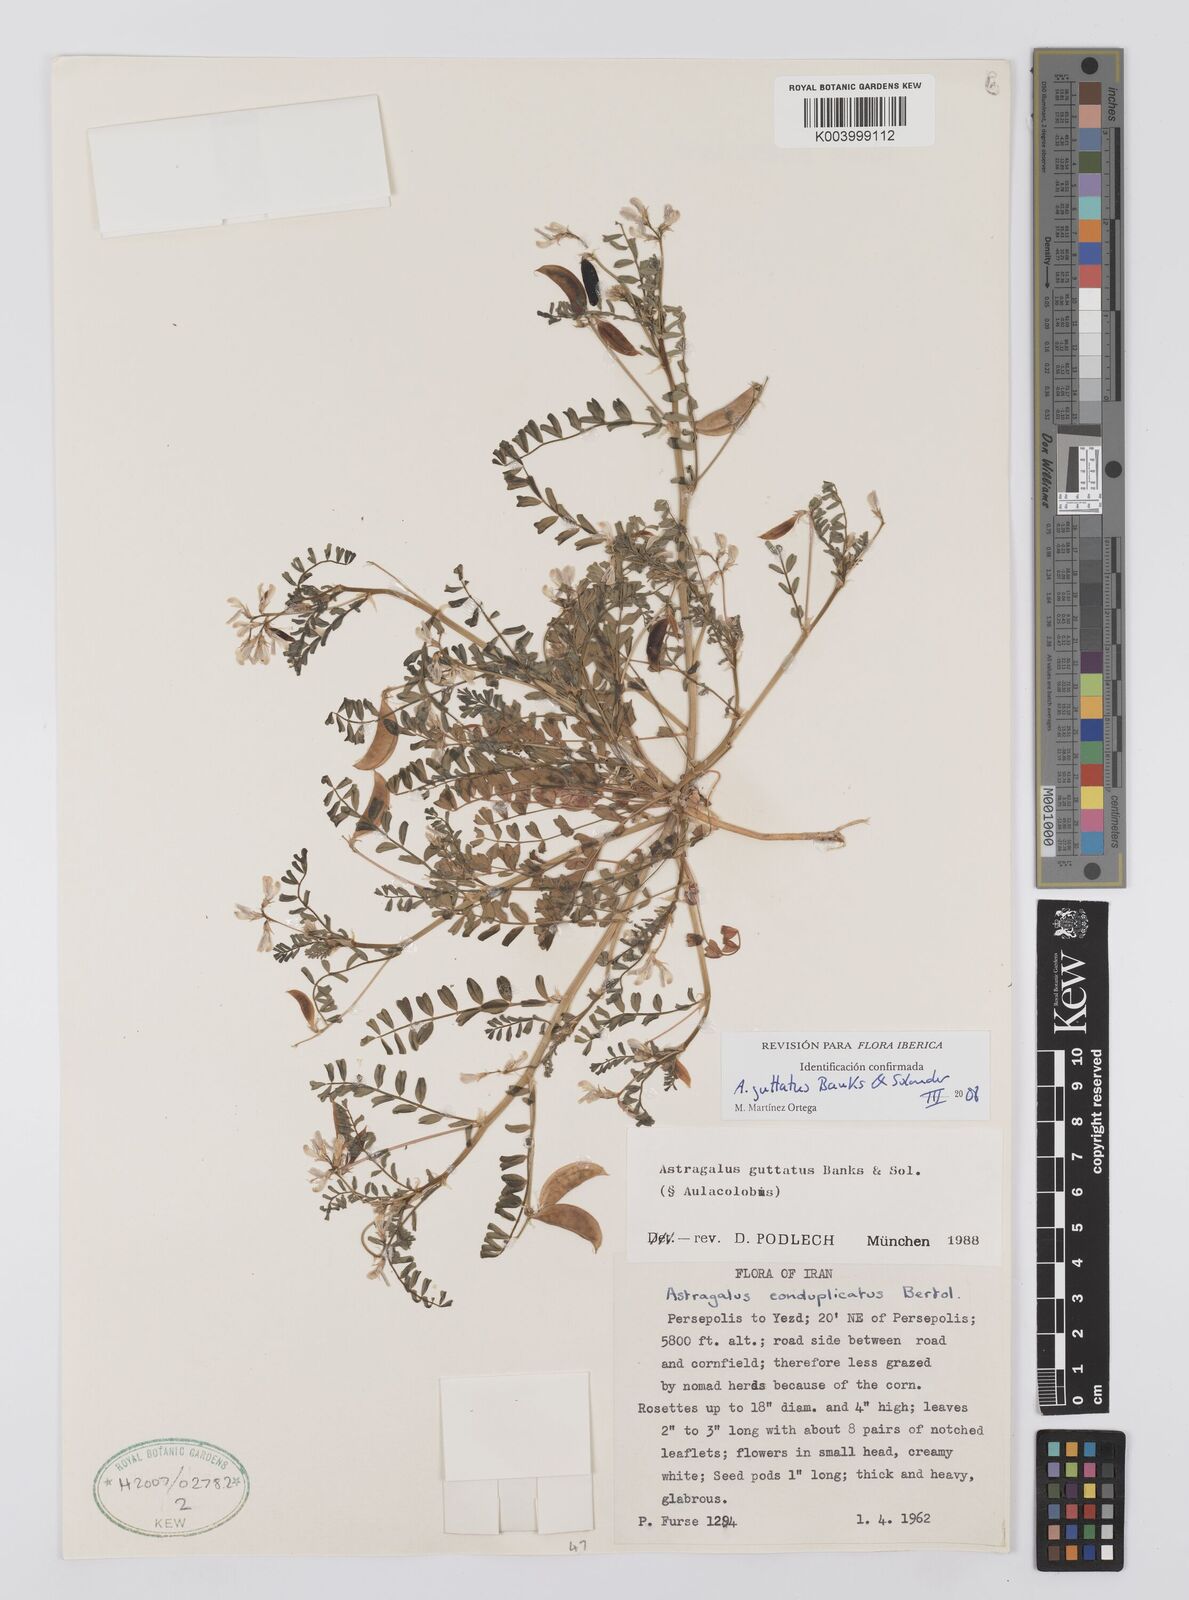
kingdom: Plantae
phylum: Tracheophyta
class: Magnoliopsida
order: Fabales
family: Fabaceae
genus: Astragalus
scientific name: Astragalus guttatus
